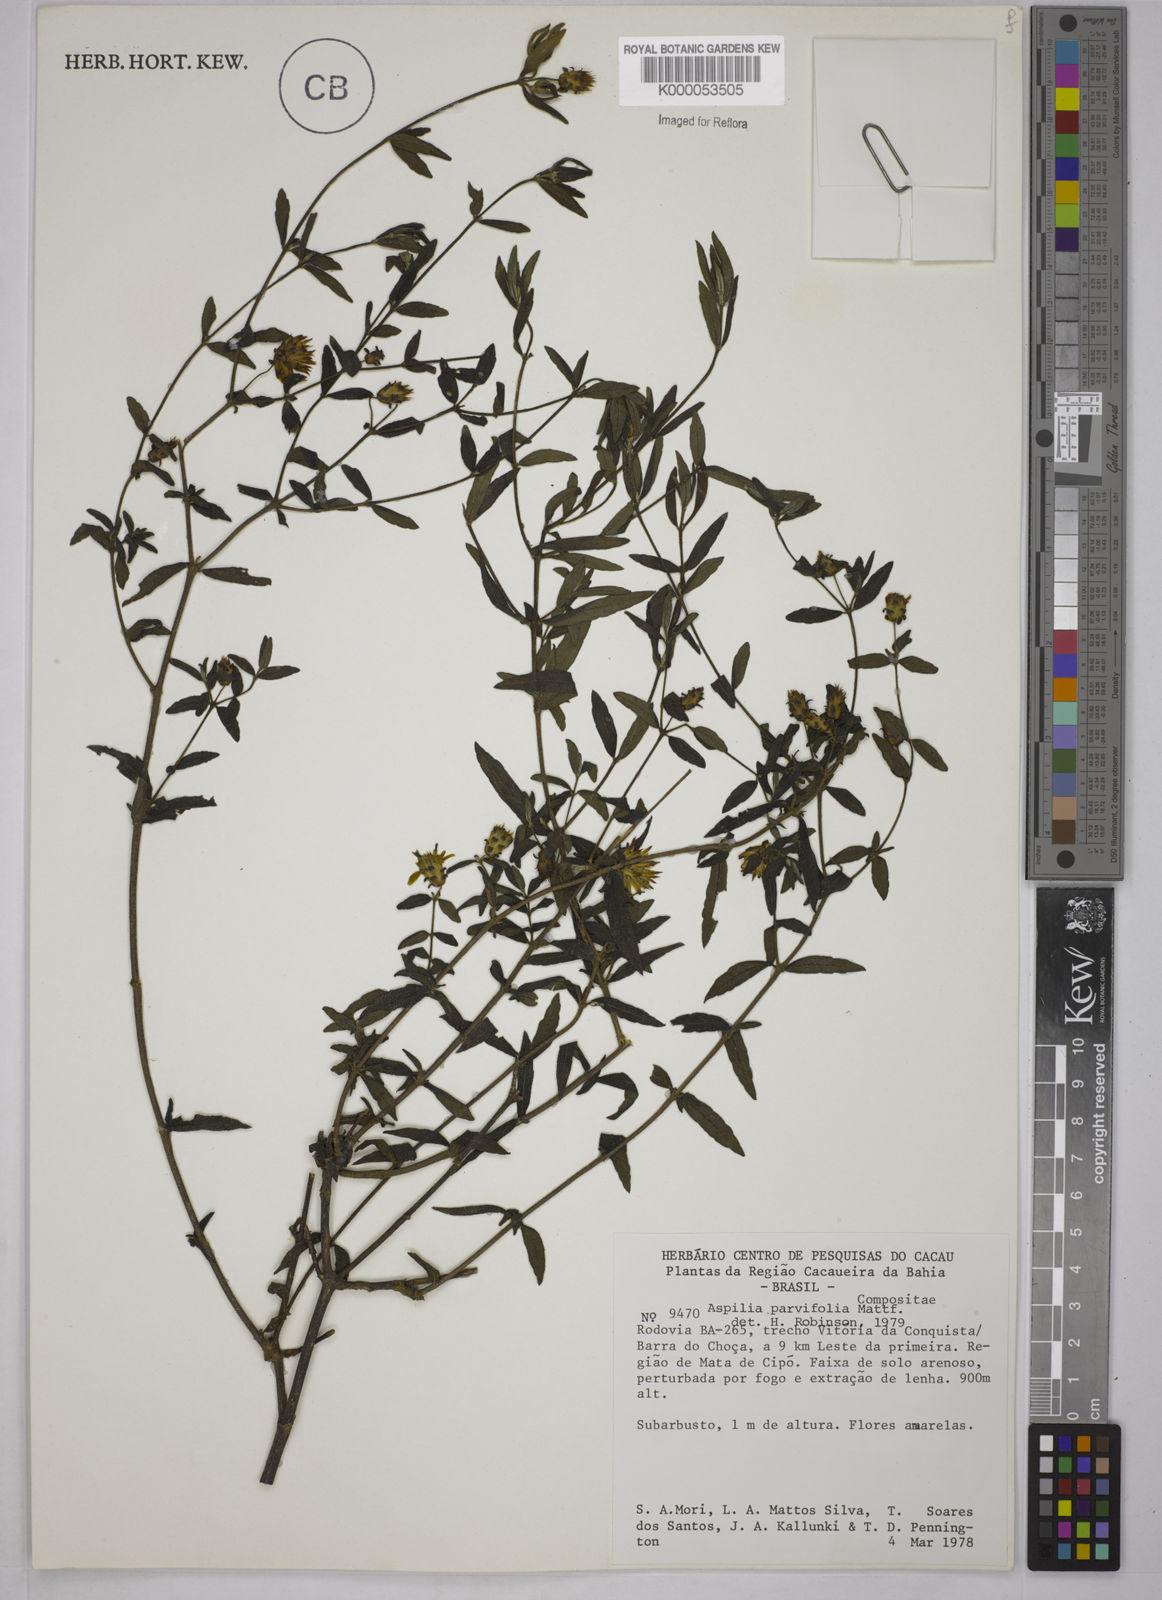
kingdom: Plantae
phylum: Tracheophyta
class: Magnoliopsida
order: Asterales
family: Asteraceae
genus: Aspilia
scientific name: Aspilia foliosa
